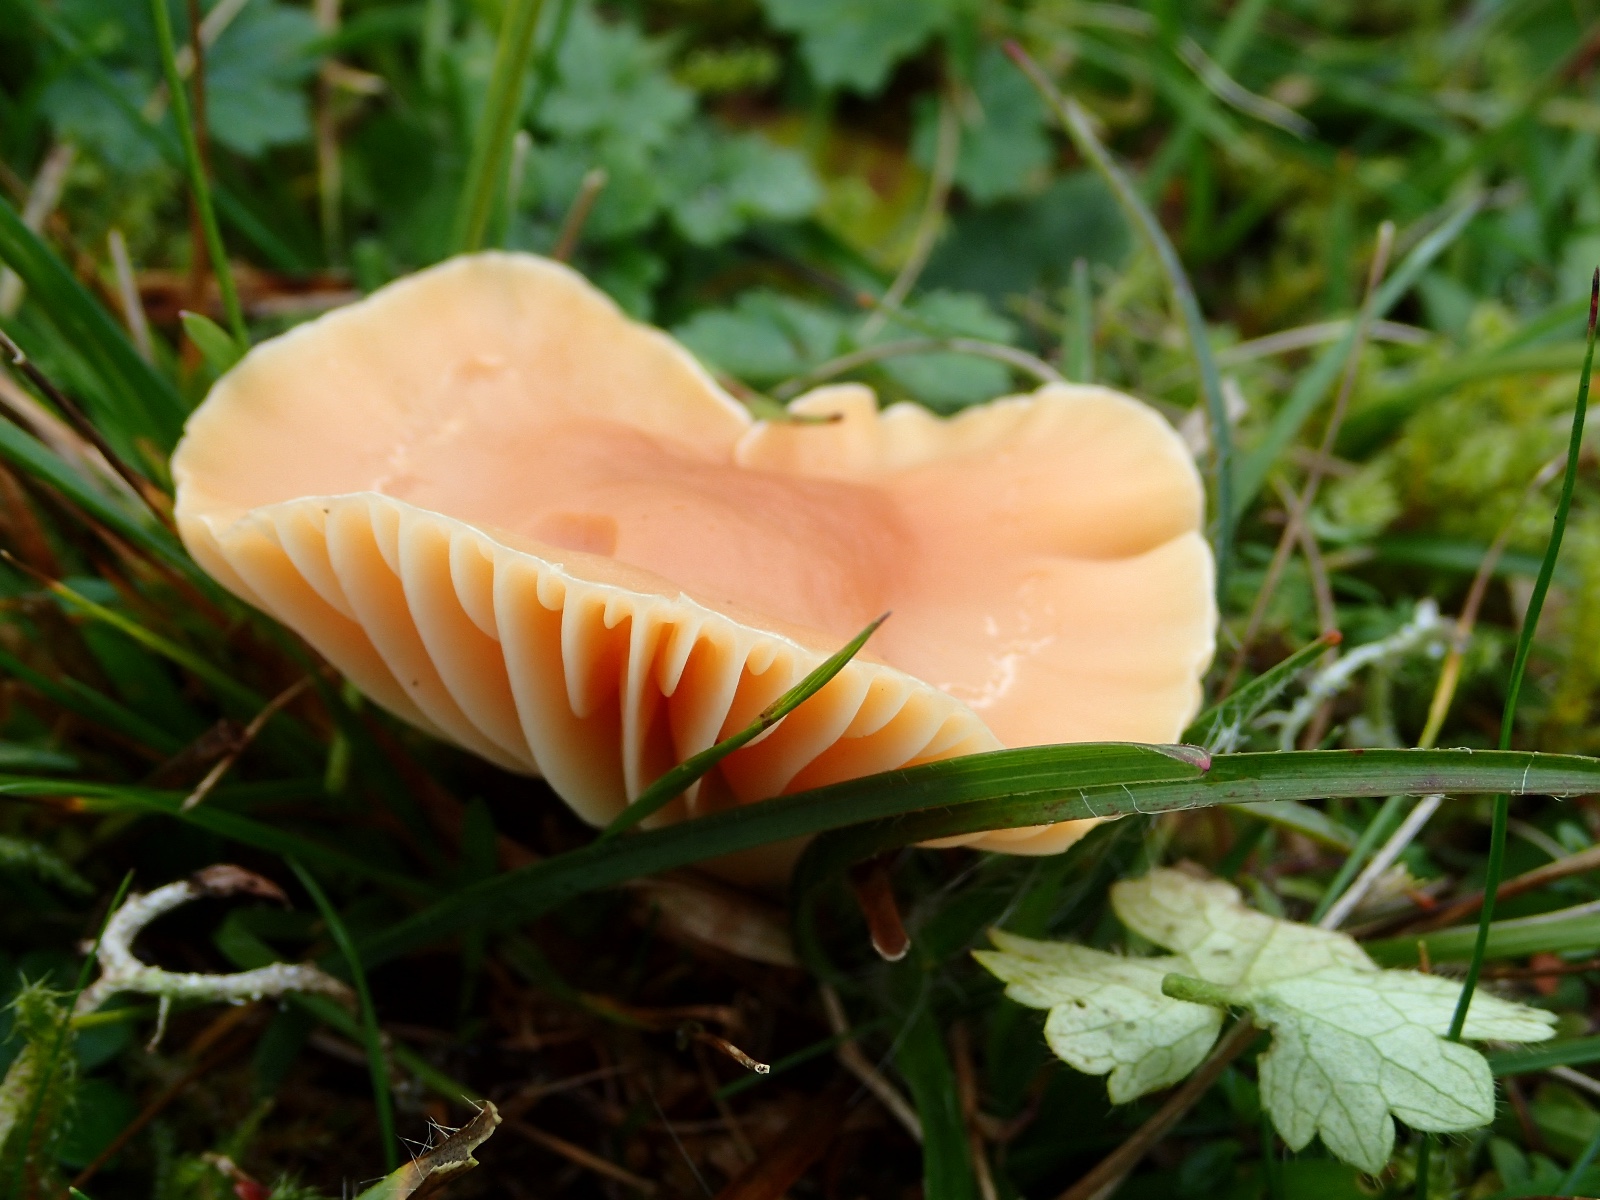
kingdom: Fungi
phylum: Basidiomycota
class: Agaricomycetes
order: Agaricales
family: Hygrophoraceae
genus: Cuphophyllus
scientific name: Cuphophyllus pratensis
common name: eng-vokshat
